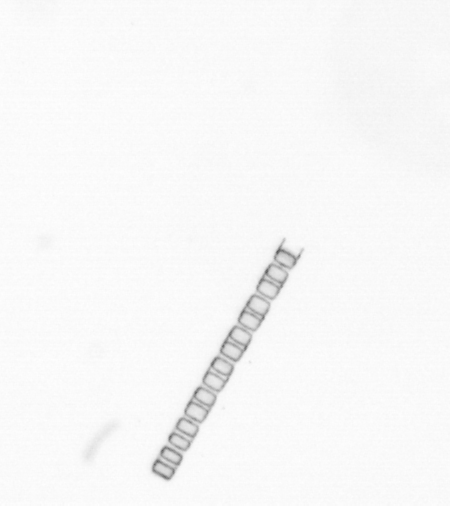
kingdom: Chromista
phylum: Ochrophyta
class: Bacillariophyceae
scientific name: Bacillariophyceae
